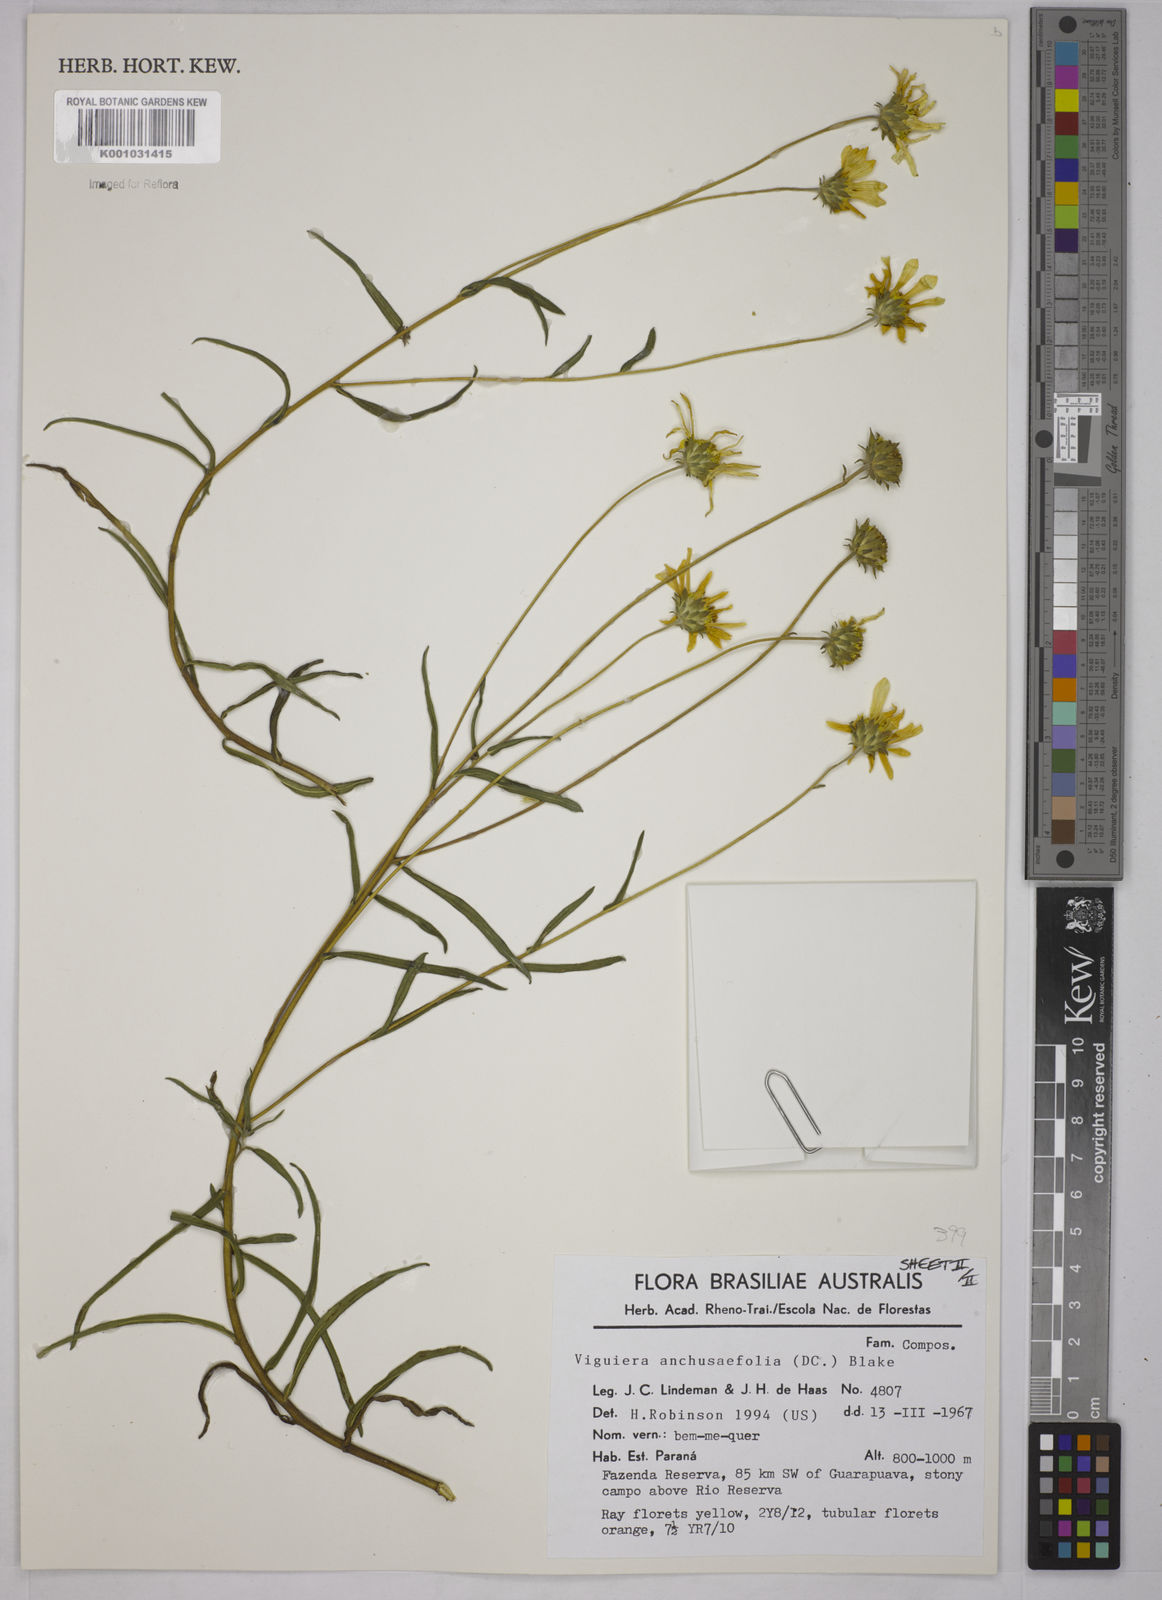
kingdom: Plantae
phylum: Tracheophyta
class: Magnoliopsida
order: Asterales
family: Asteraceae
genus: Viguiera
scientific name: Viguiera
